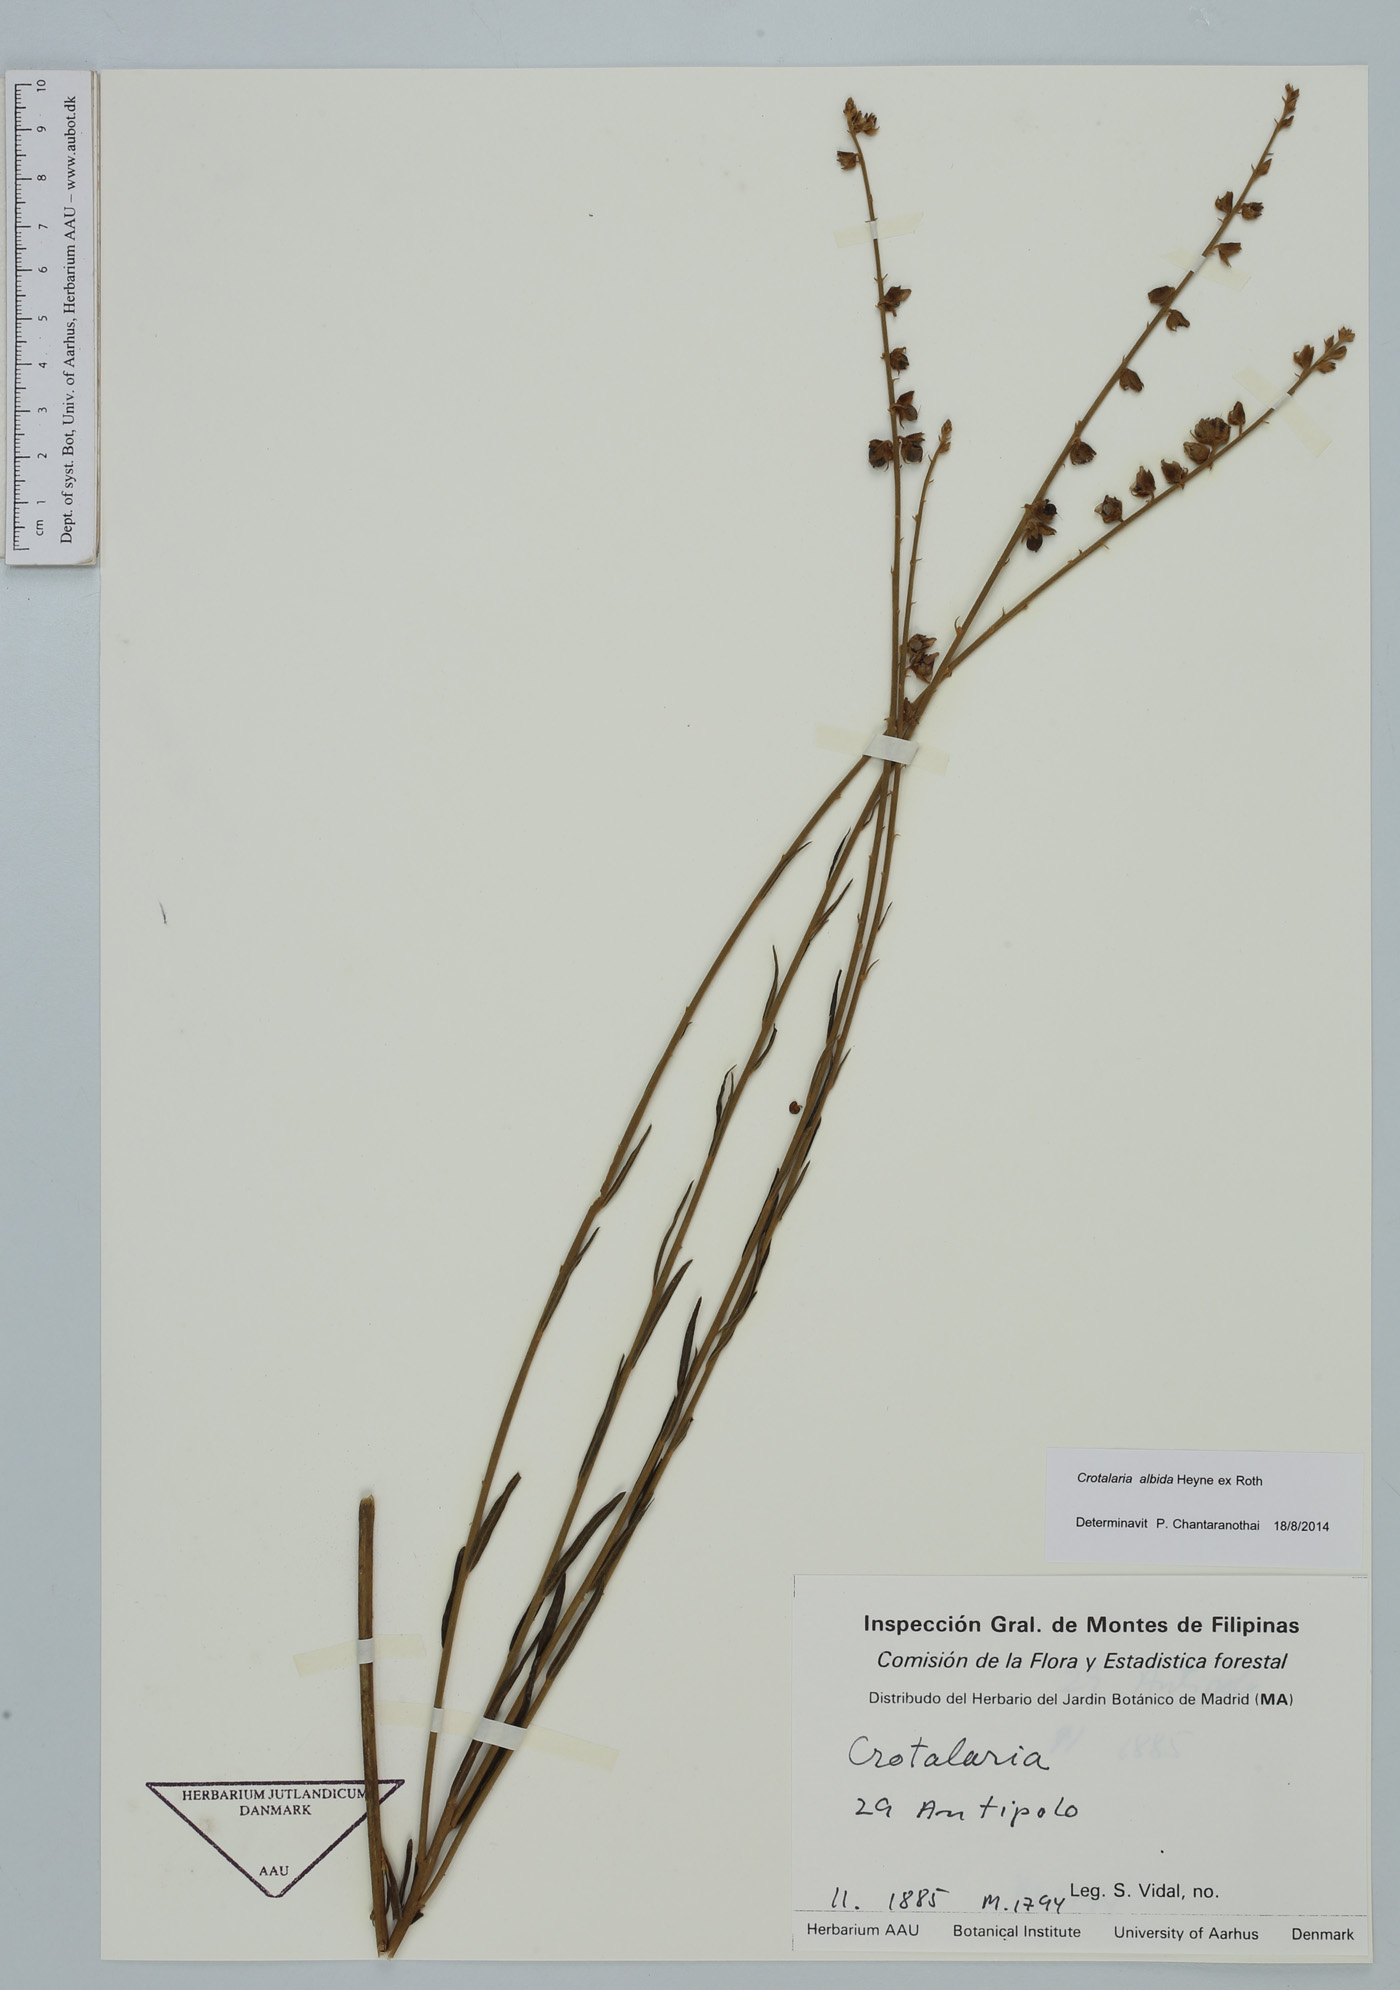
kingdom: Plantae
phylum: Tracheophyta
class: Magnoliopsida
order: Fabales
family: Fabaceae
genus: Crotalaria
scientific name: Crotalaria albida
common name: Taiwan crotalaria
